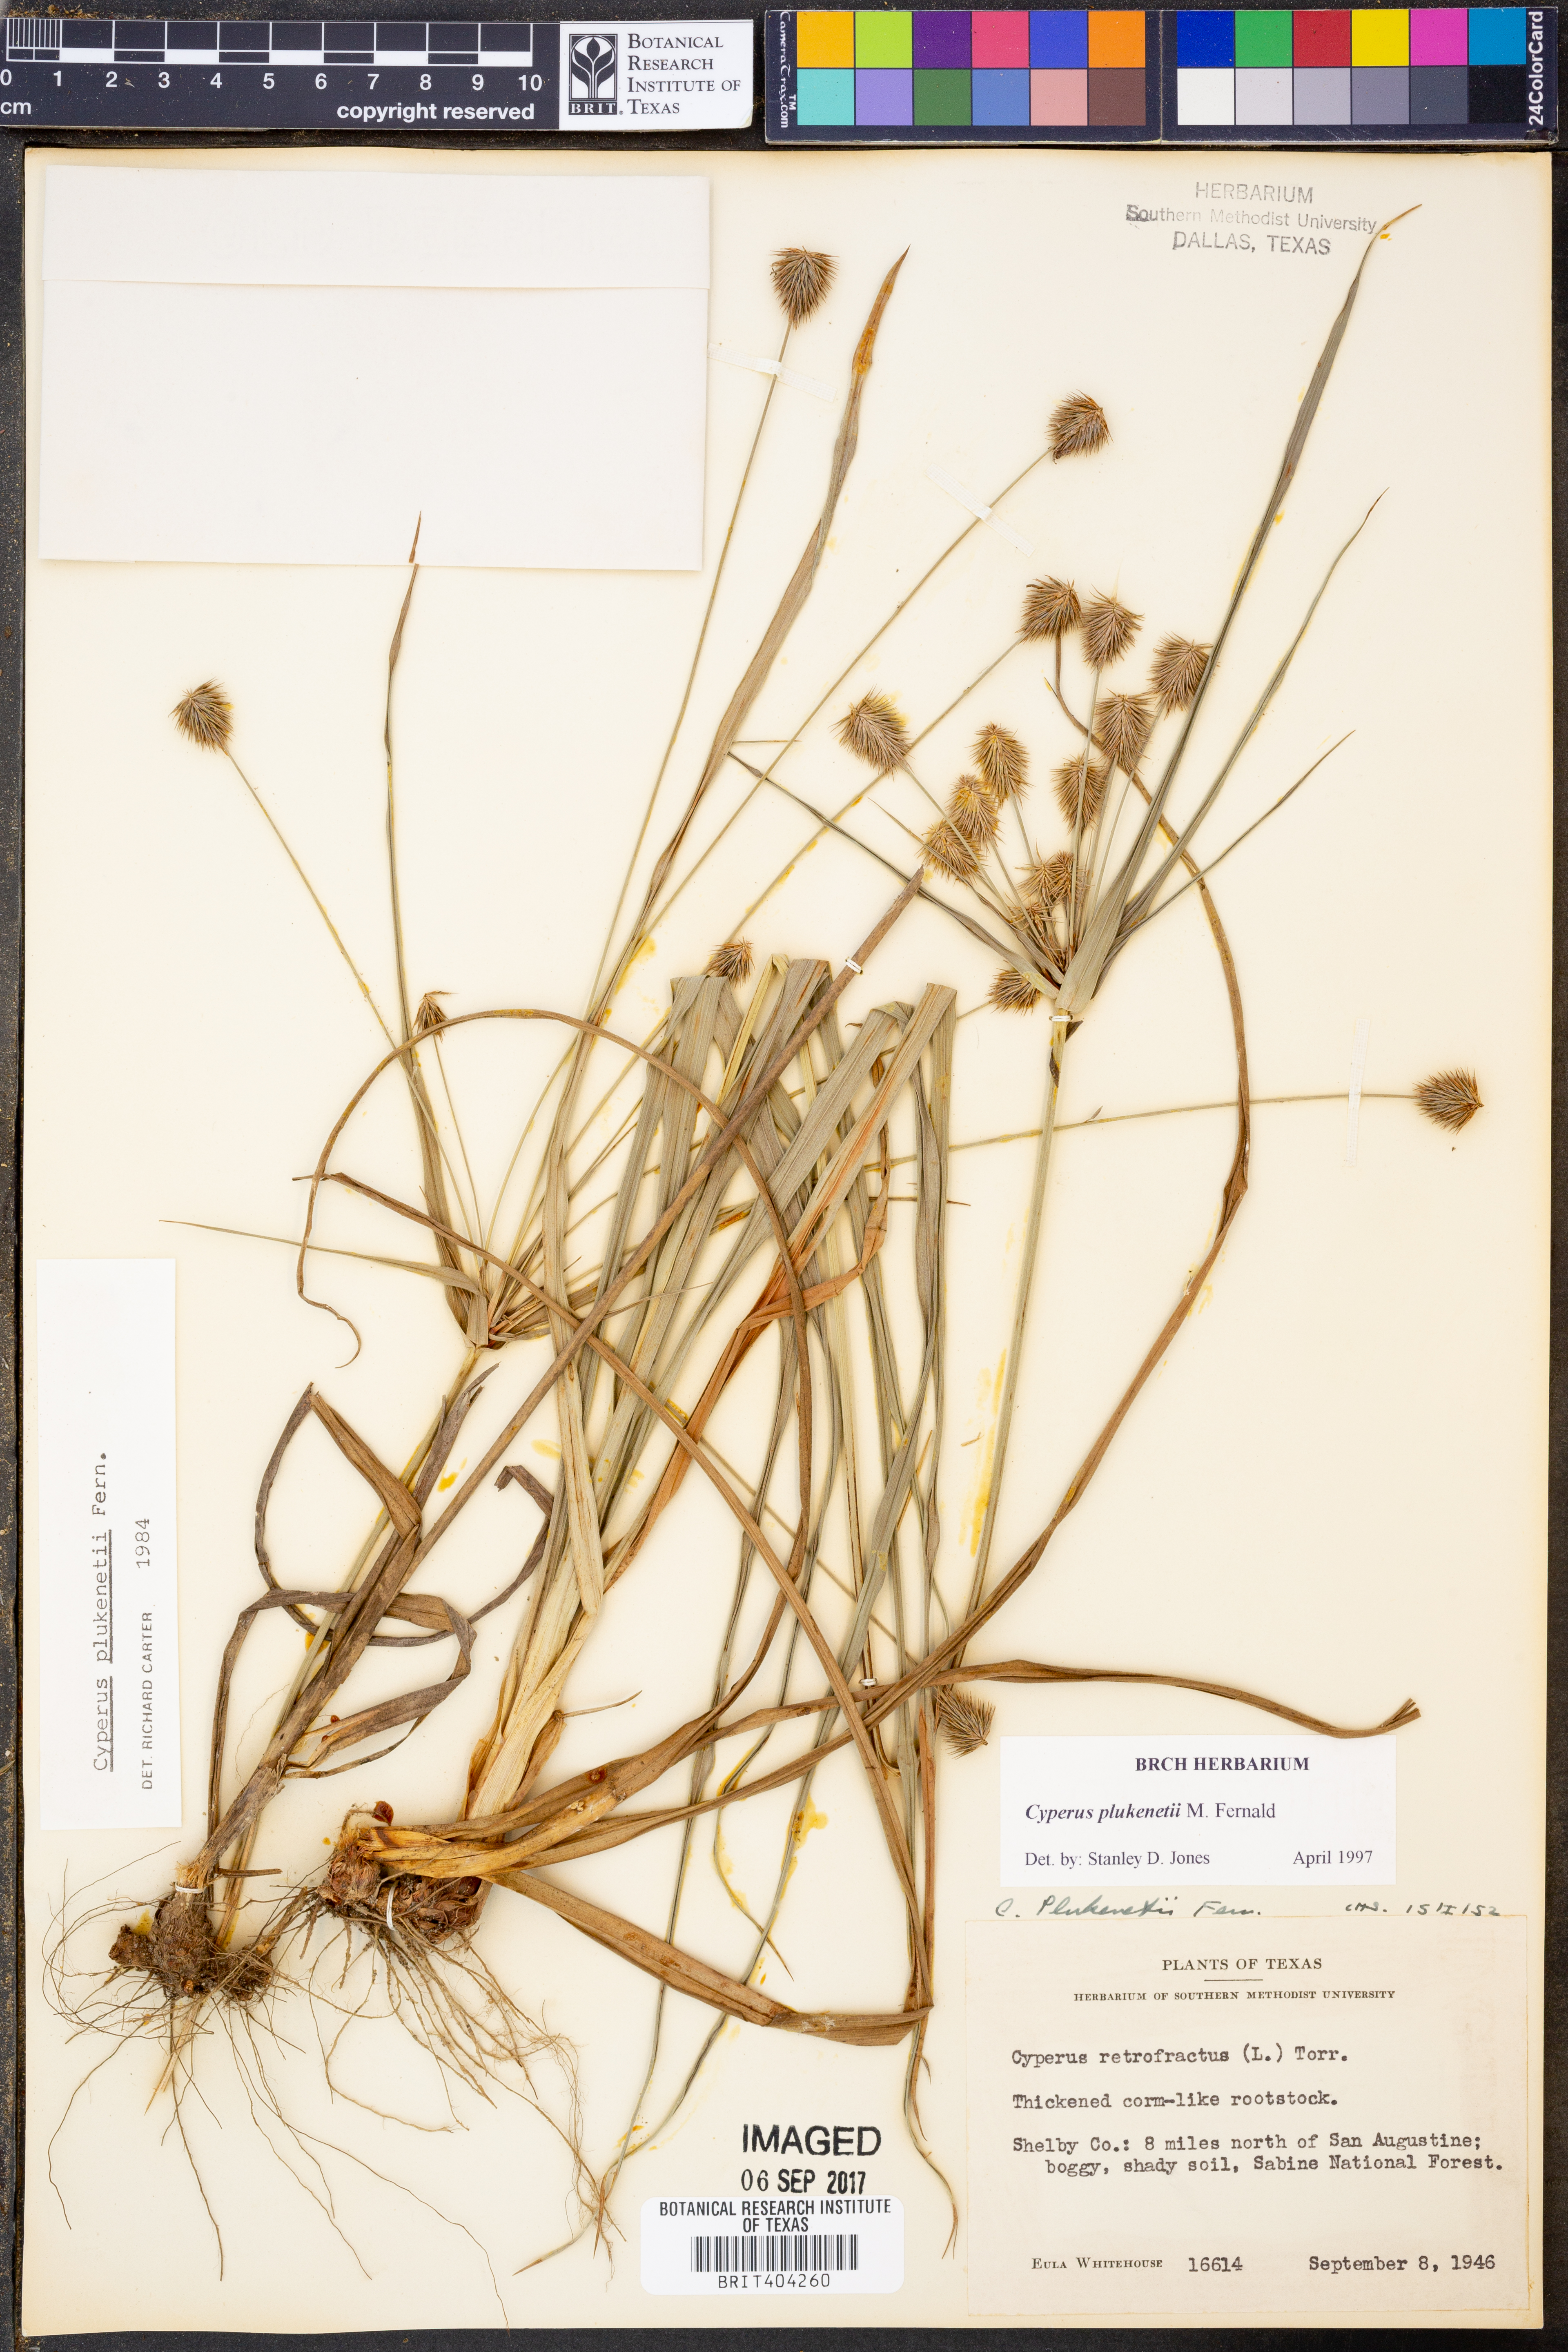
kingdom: Plantae
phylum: Tracheophyta
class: Liliopsida
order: Poales
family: Cyperaceae
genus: Cyperus
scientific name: Cyperus plukenetii
